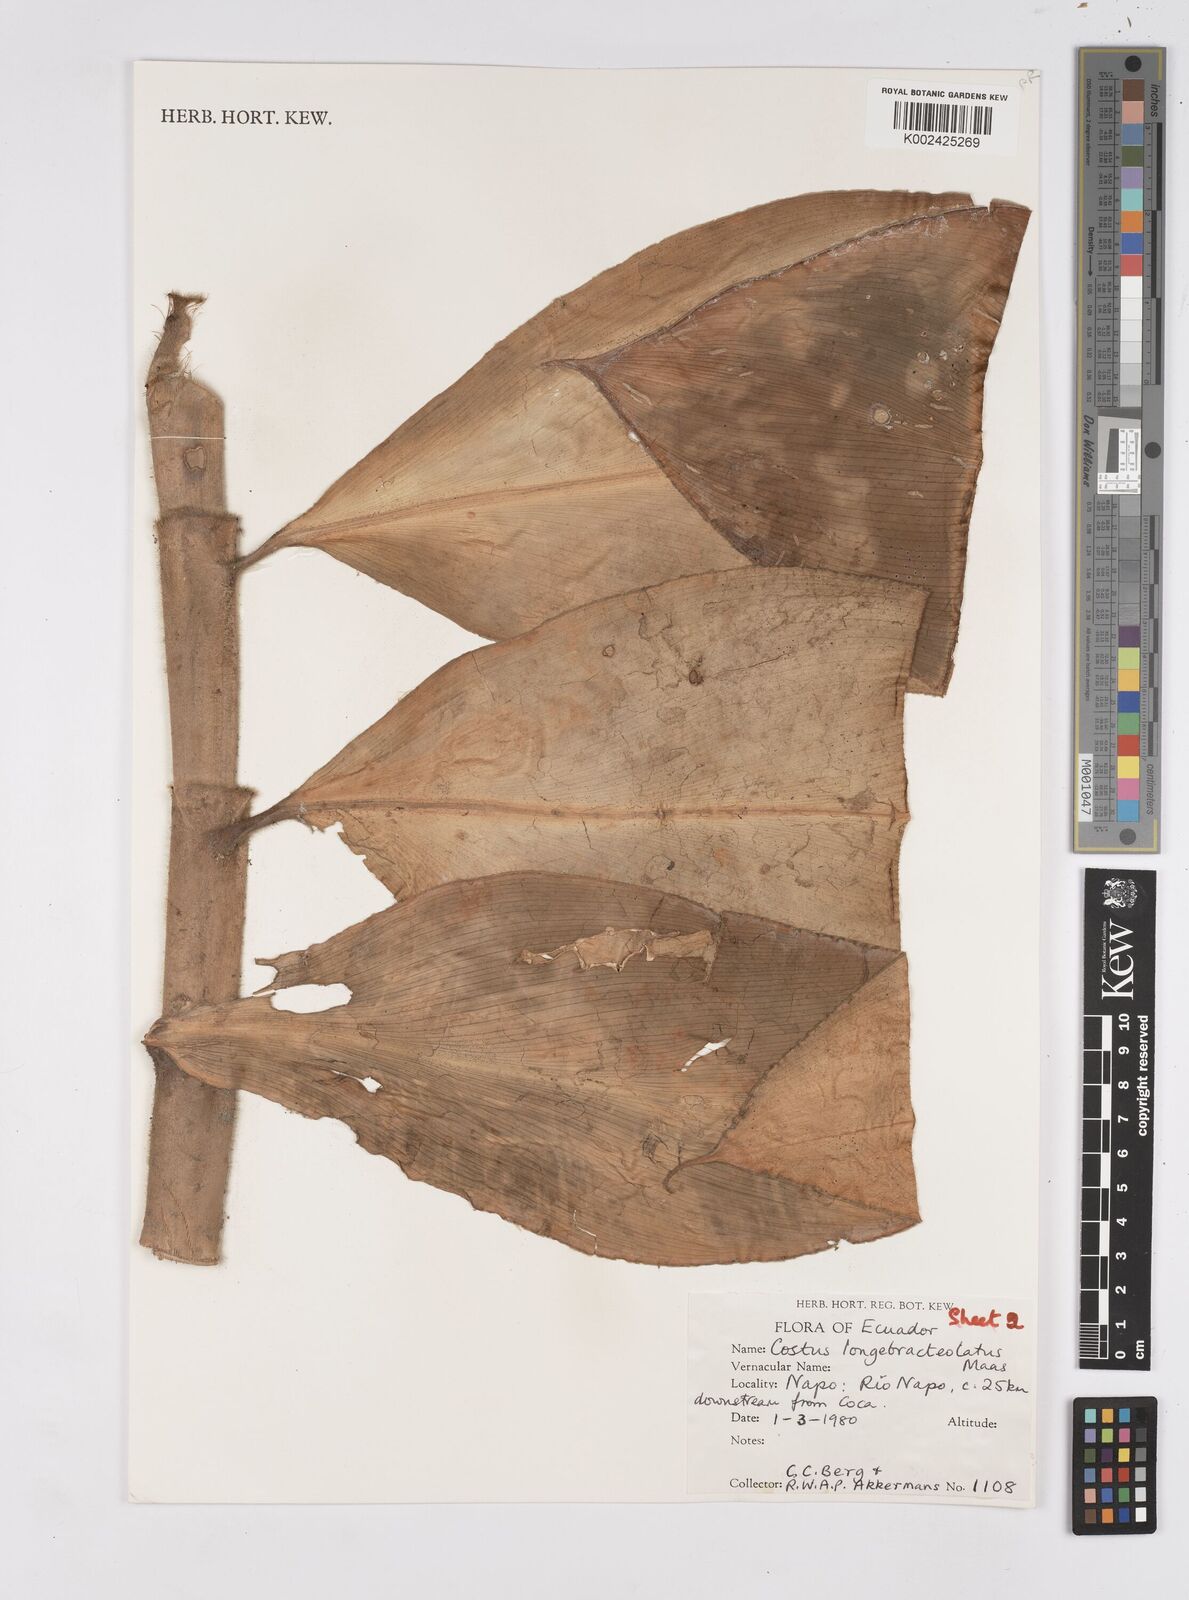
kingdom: Plantae
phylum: Tracheophyta
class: Liliopsida
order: Zingiberales
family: Costaceae
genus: Costus
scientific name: Costus longibracteolatus
